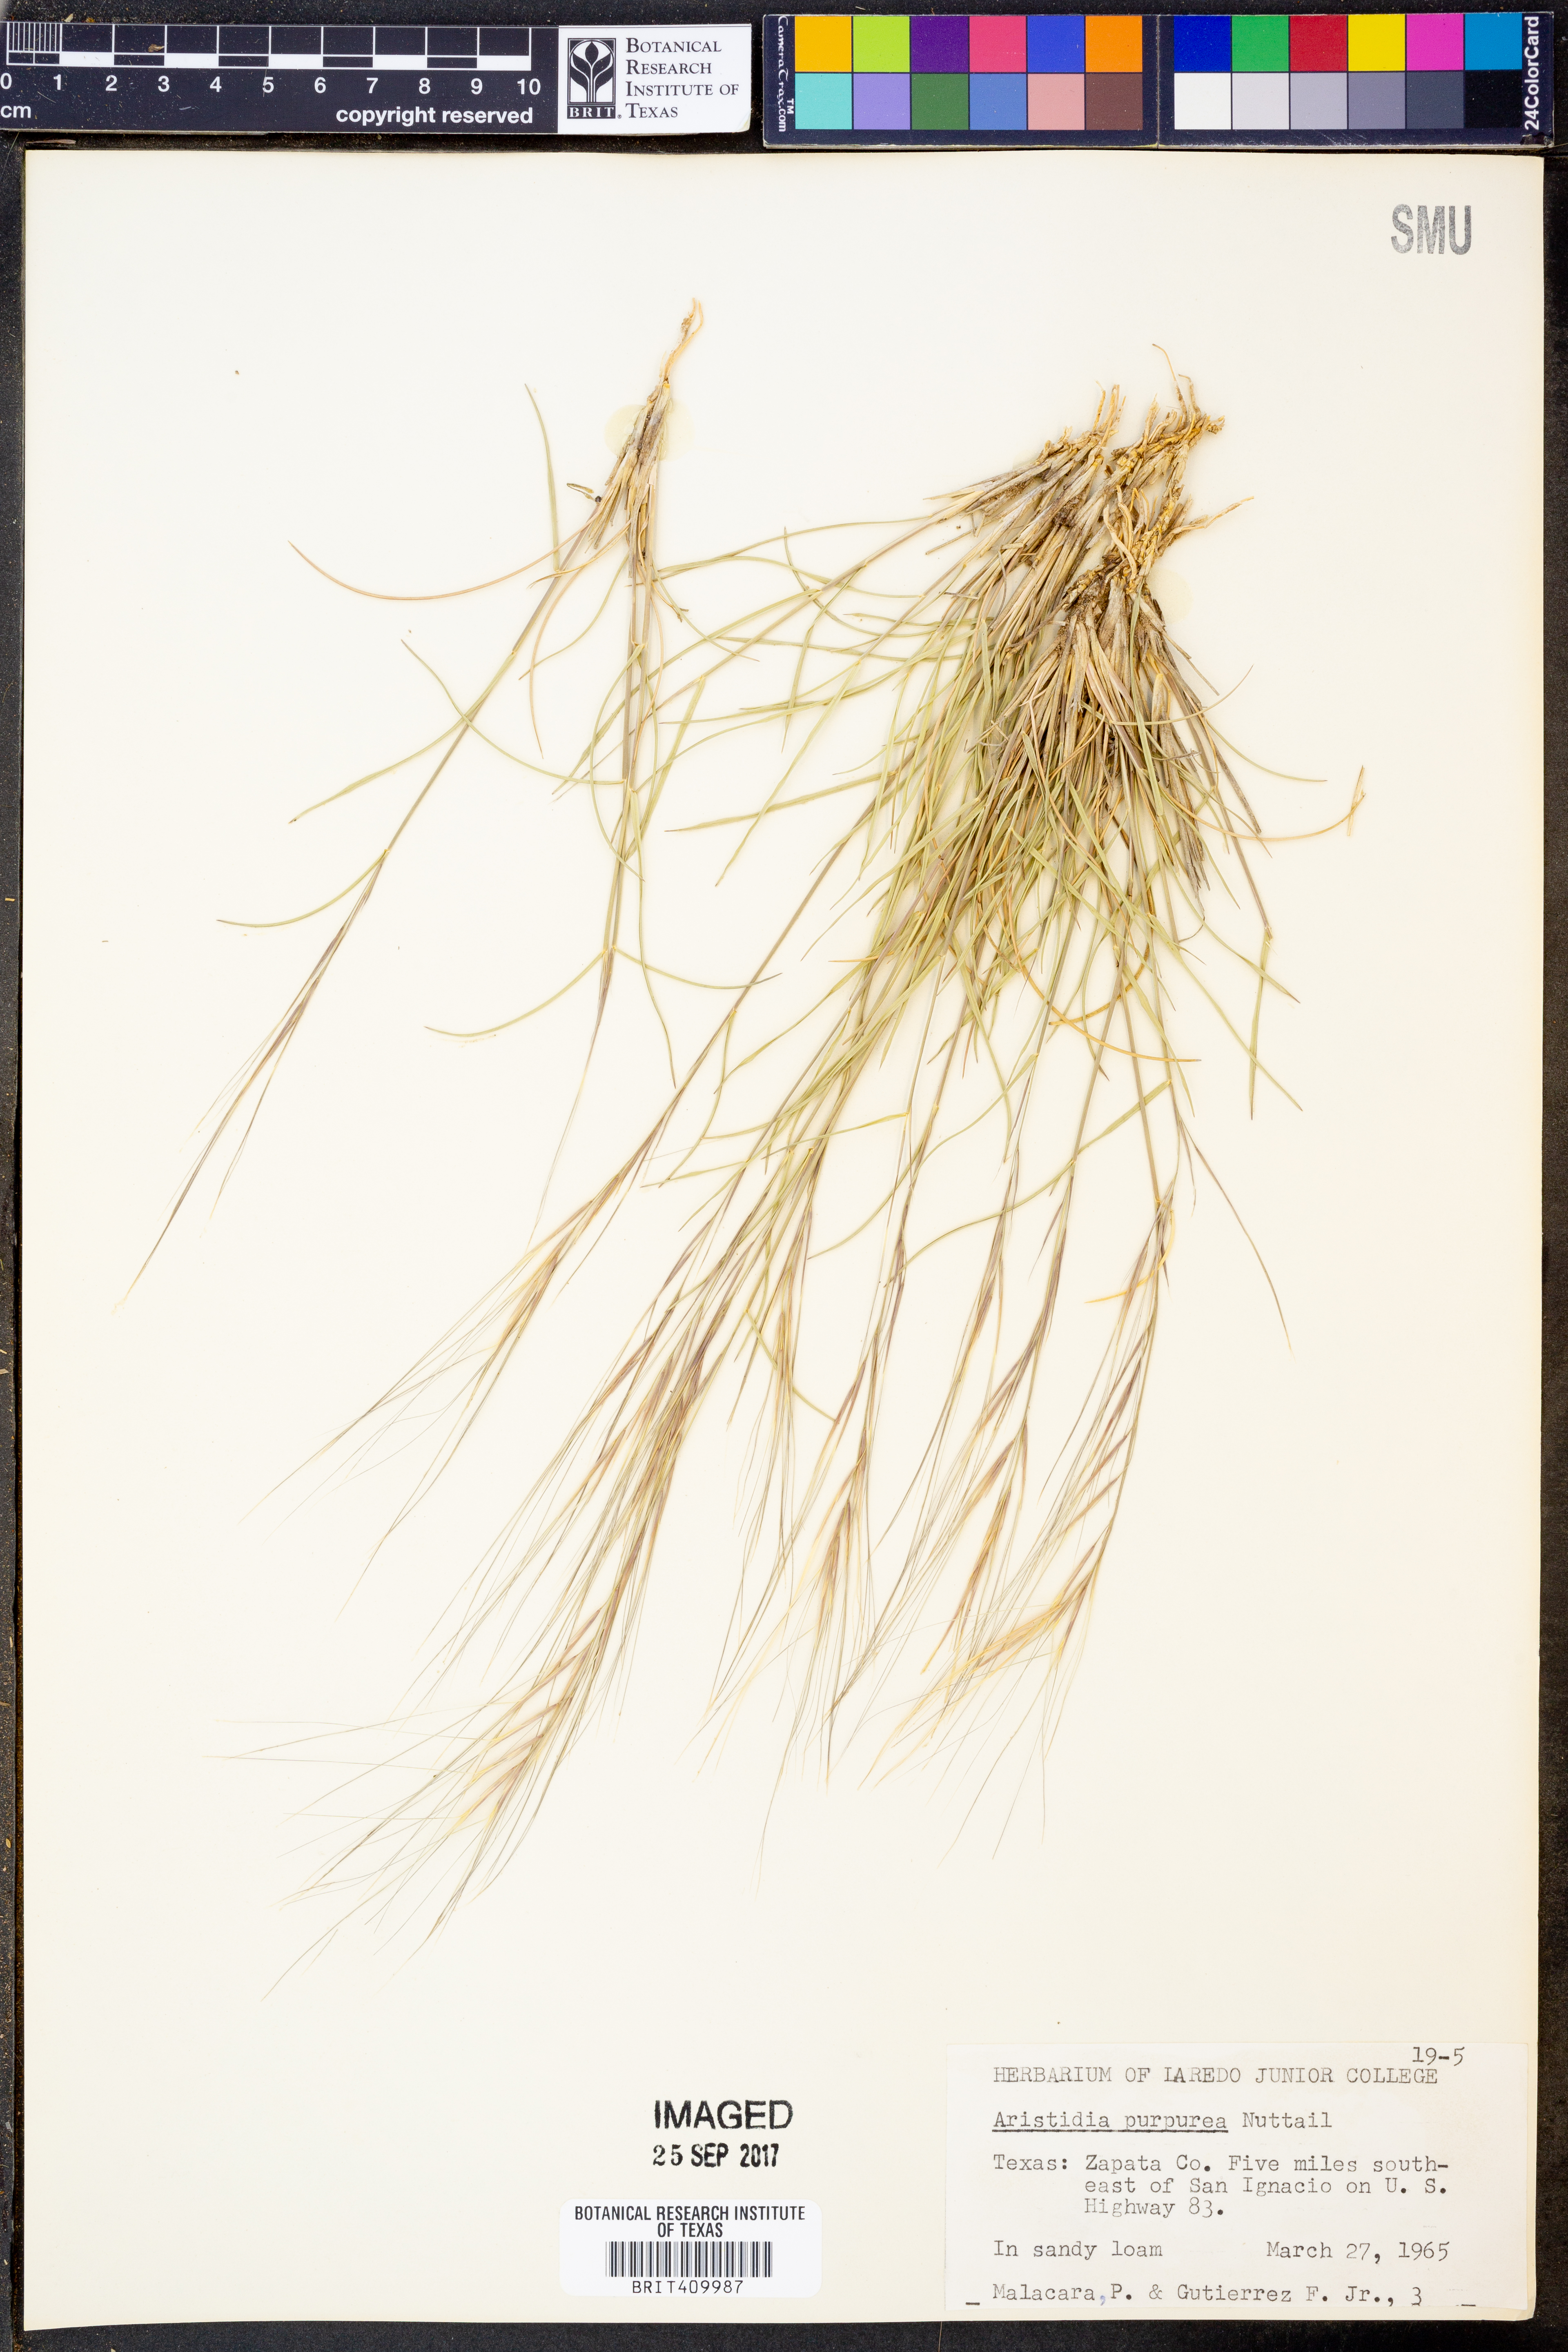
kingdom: Plantae
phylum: Tracheophyta
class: Liliopsida
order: Poales
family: Poaceae
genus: Aristida
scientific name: Aristida purpurea
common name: Purple threeawn
